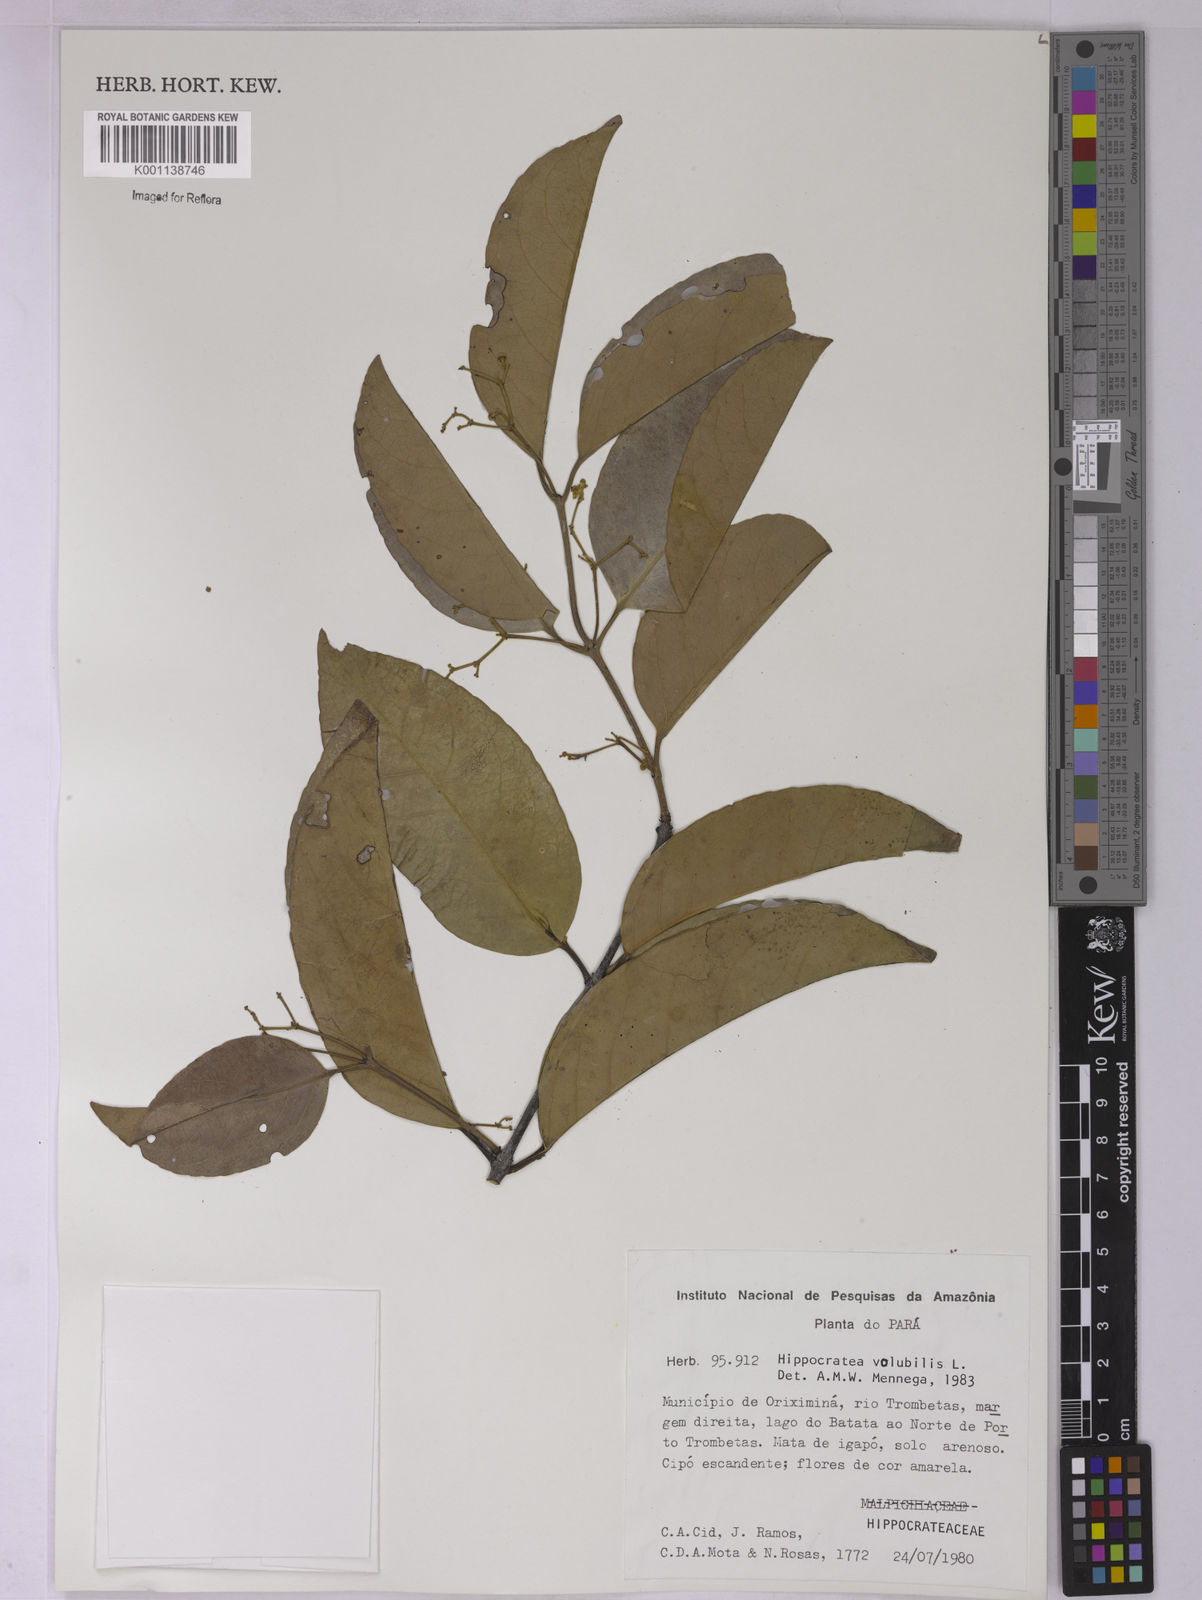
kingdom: Plantae
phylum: Tracheophyta
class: Magnoliopsida
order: Celastrales
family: Celastraceae
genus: Hippocratea
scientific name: Hippocratea volubilis
